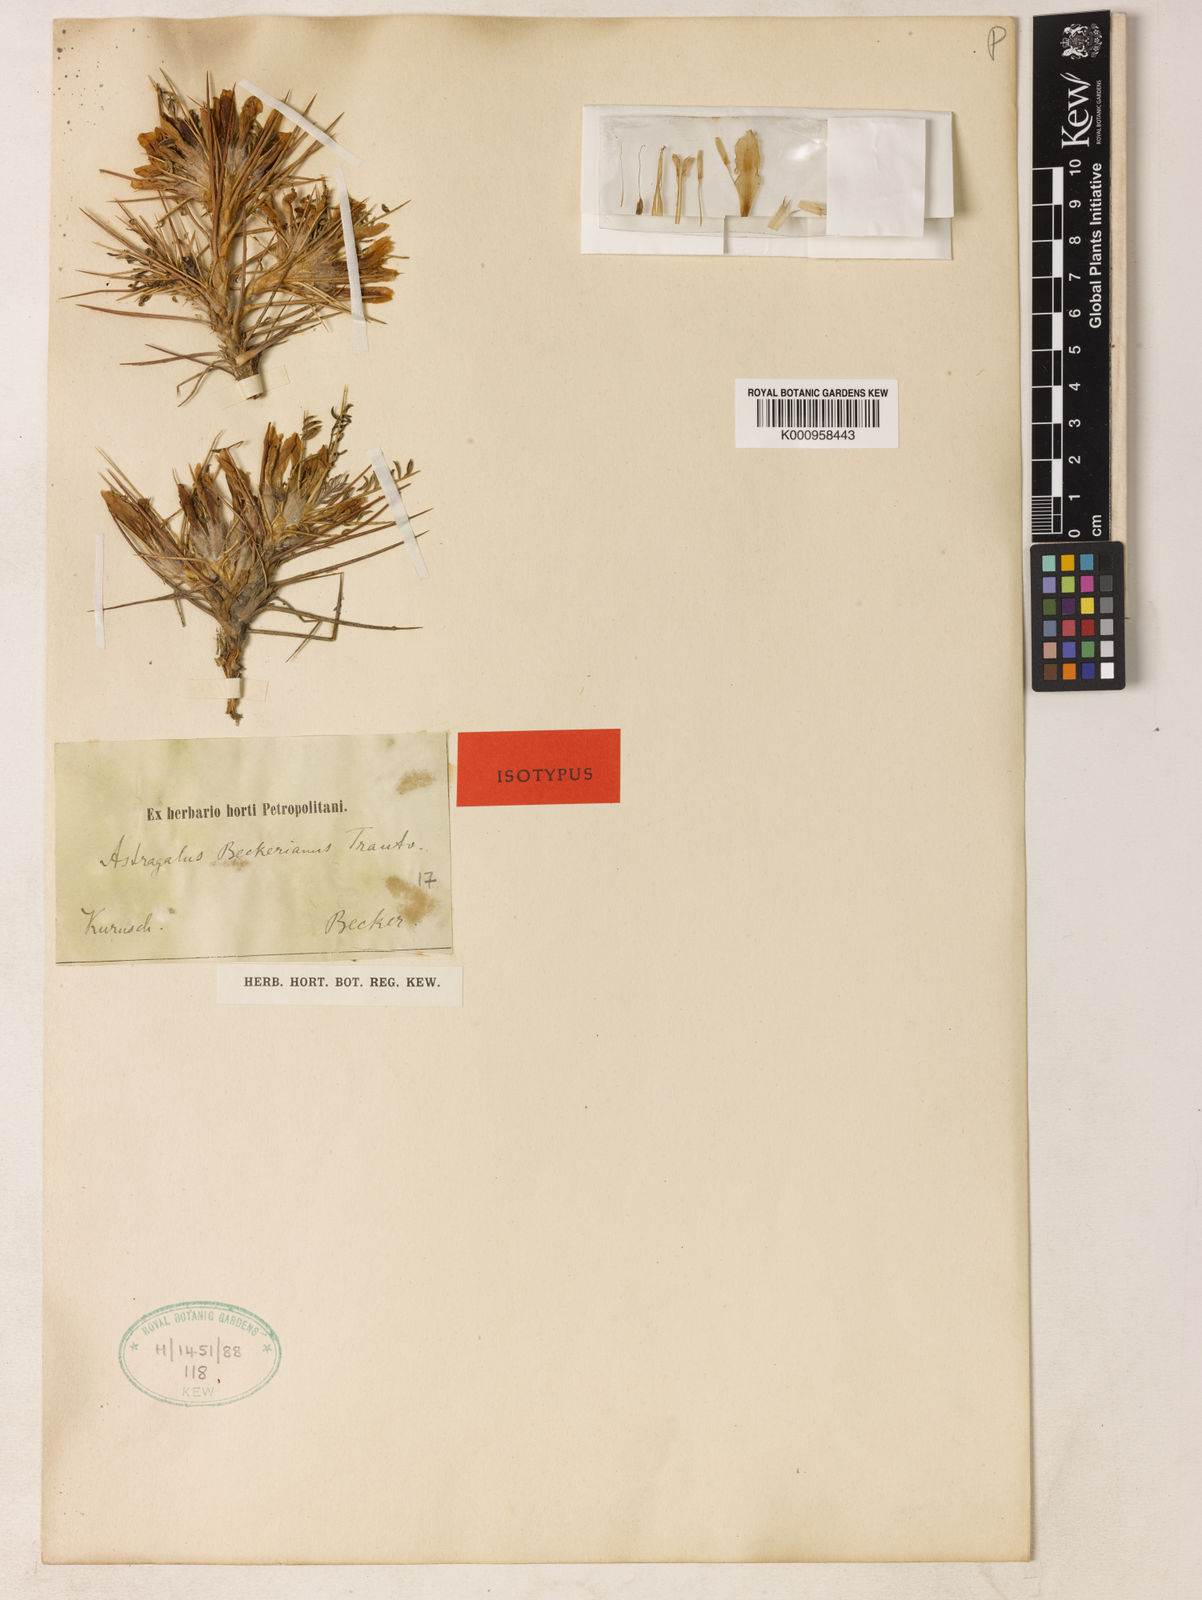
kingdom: Plantae
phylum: Tracheophyta
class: Magnoliopsida
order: Fabales
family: Fabaceae
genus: Astragalus
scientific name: Astragalus beckerianus
